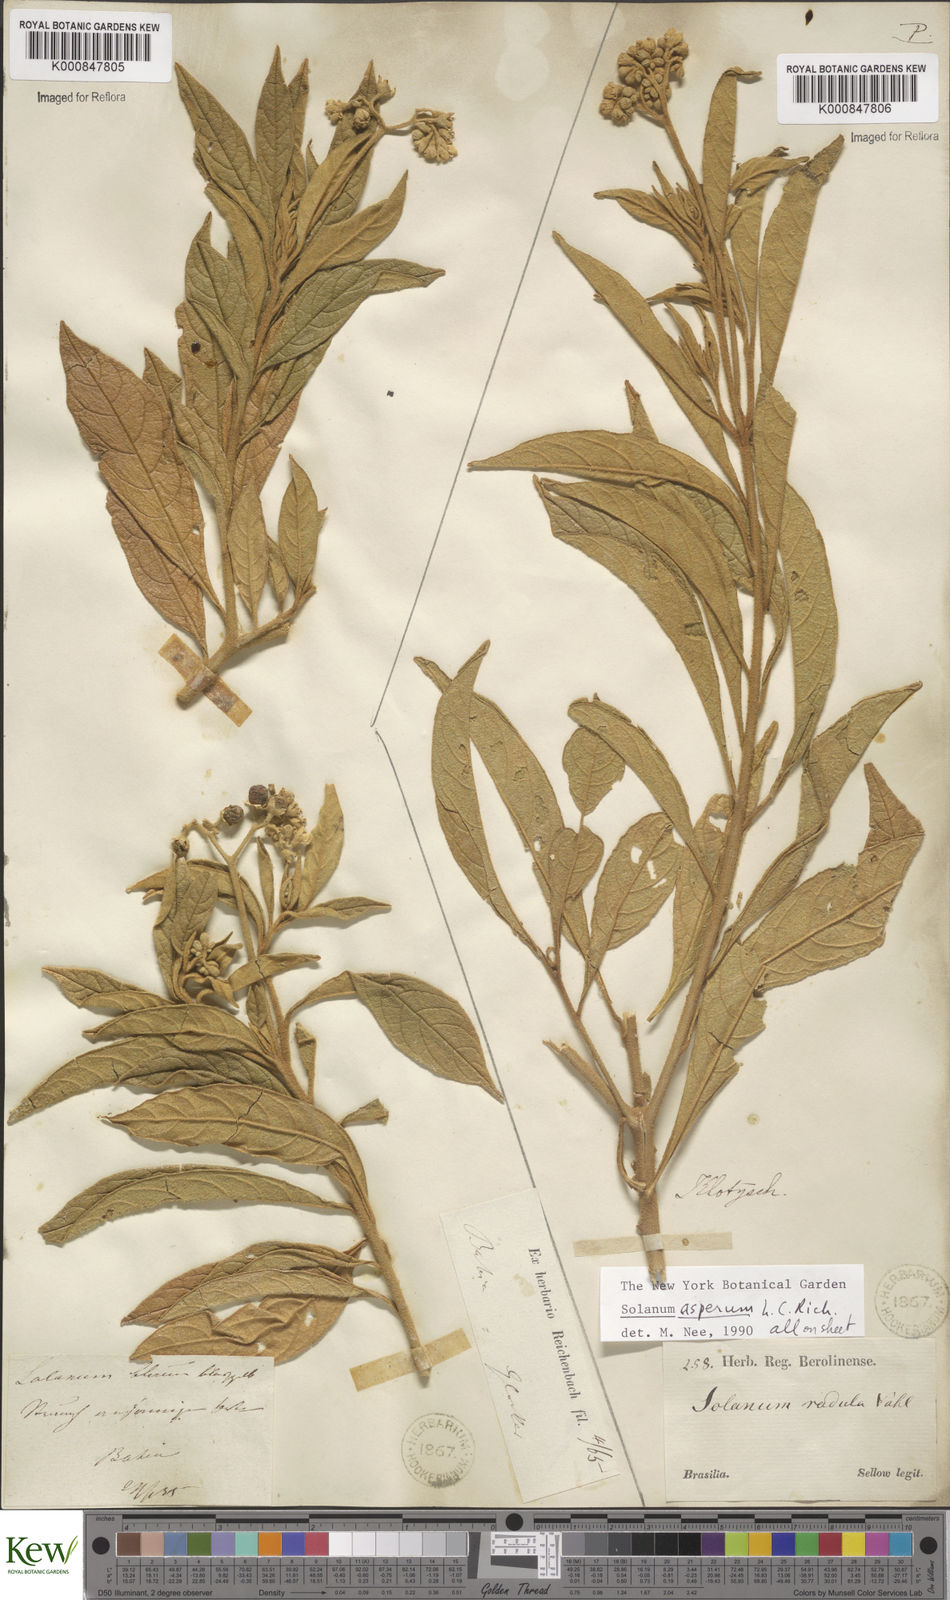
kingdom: Plantae
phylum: Tracheophyta
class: Magnoliopsida
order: Solanales
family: Solanaceae
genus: Solanum
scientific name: Solanum asperum
